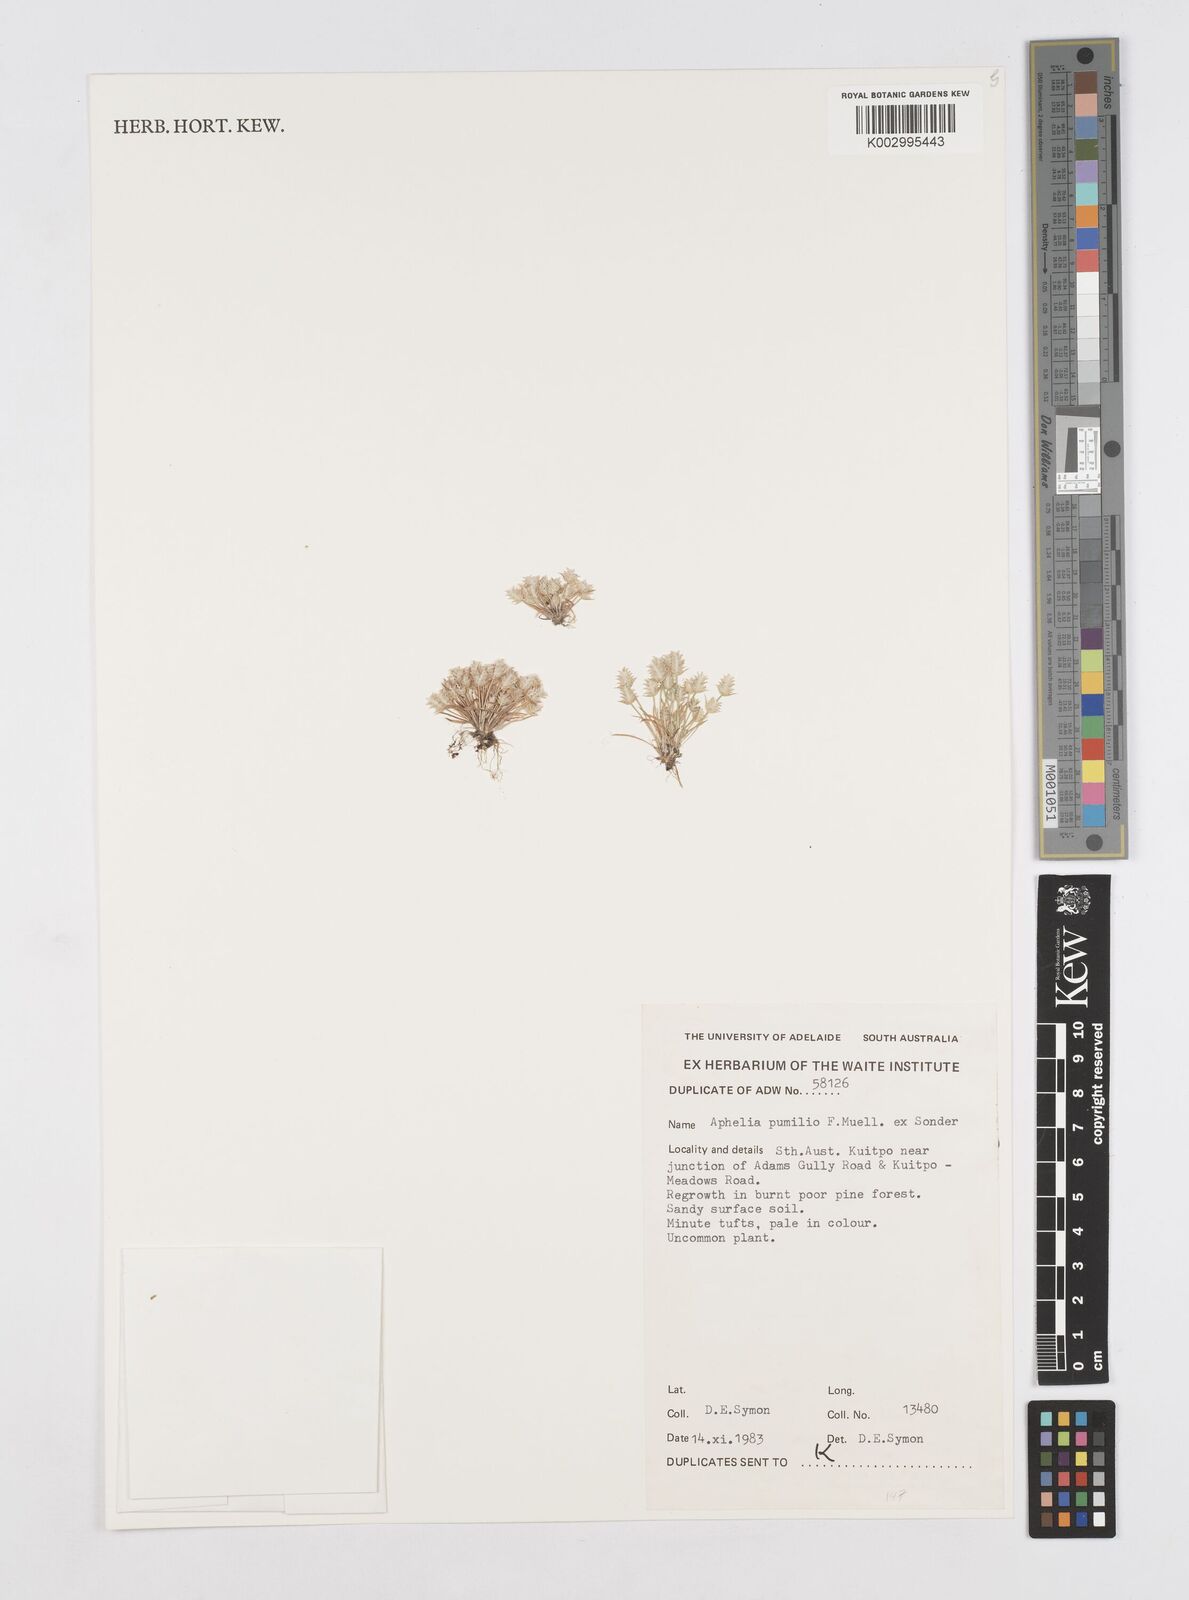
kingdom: Plantae
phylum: Tracheophyta
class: Liliopsida
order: Poales
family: Restionaceae
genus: Aphelia
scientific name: Aphelia pumilio
